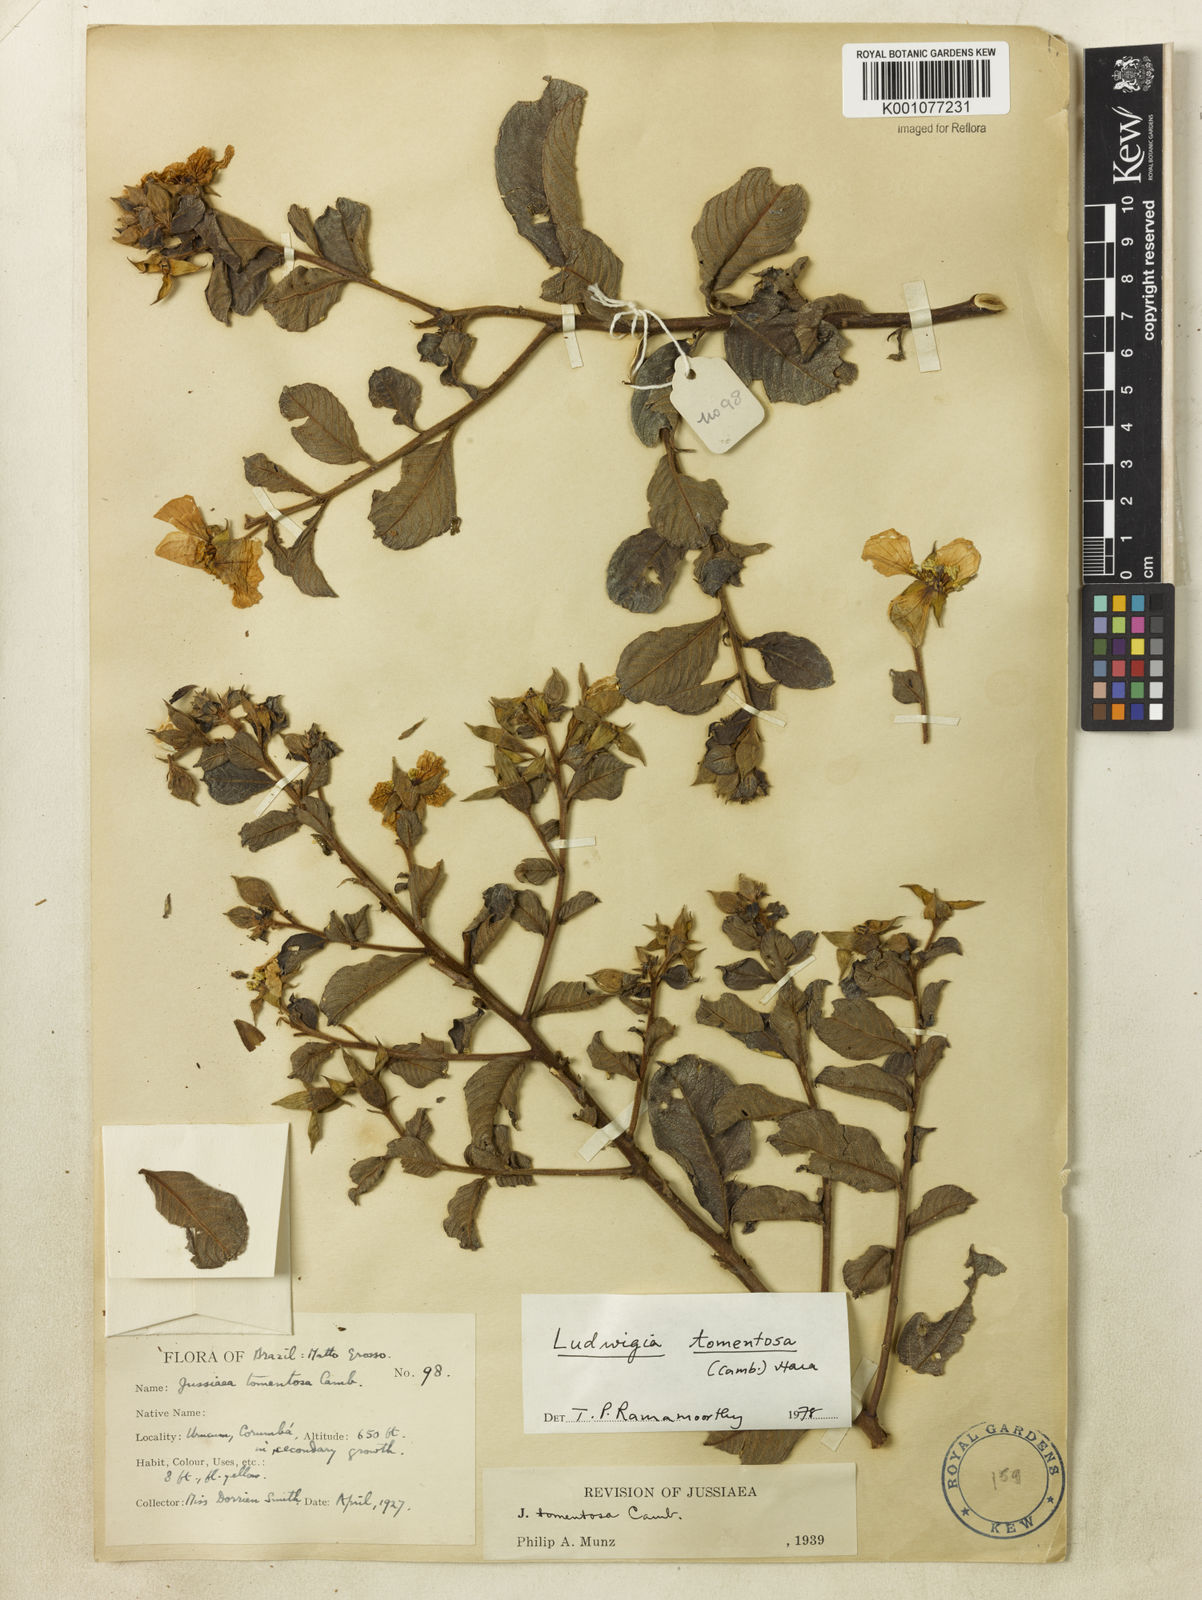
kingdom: Plantae
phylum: Tracheophyta
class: Magnoliopsida
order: Myrtales
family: Onagraceae
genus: Ludwigia
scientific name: Ludwigia tomentosa
